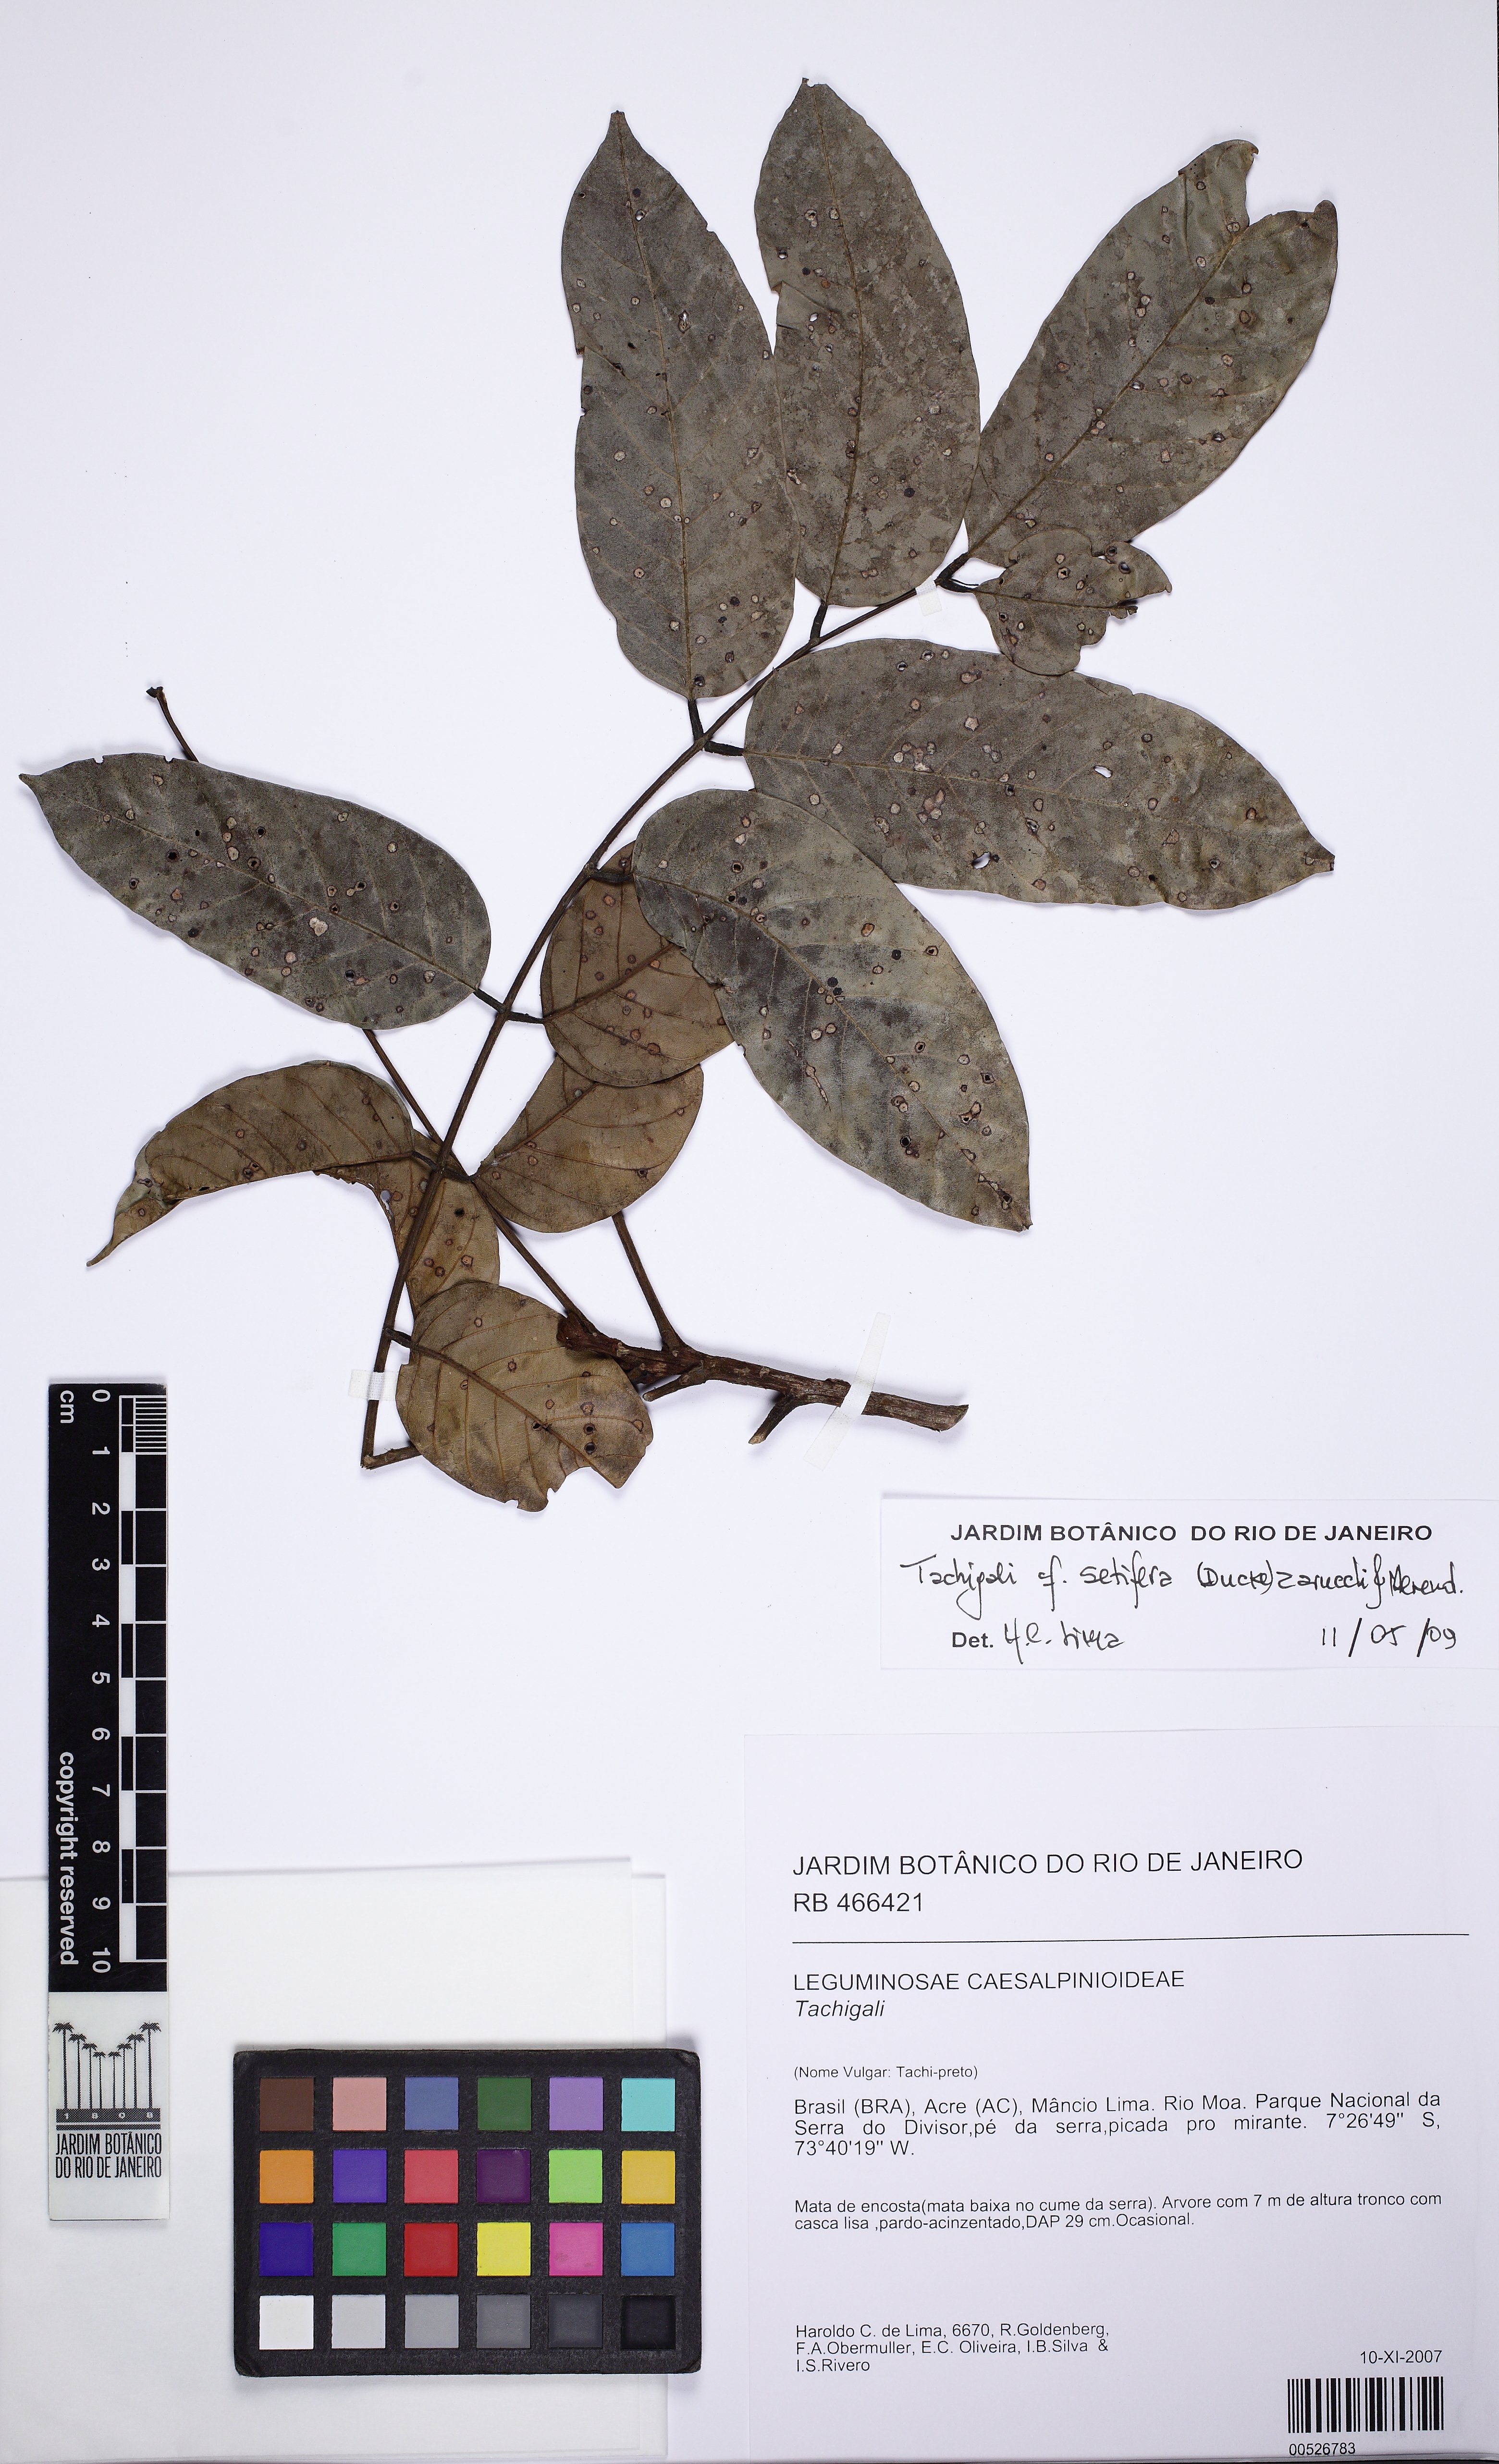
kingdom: Plantae
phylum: Tracheophyta
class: Magnoliopsida
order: Fabales
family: Fabaceae
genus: Tachigali
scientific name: Tachigali alba
